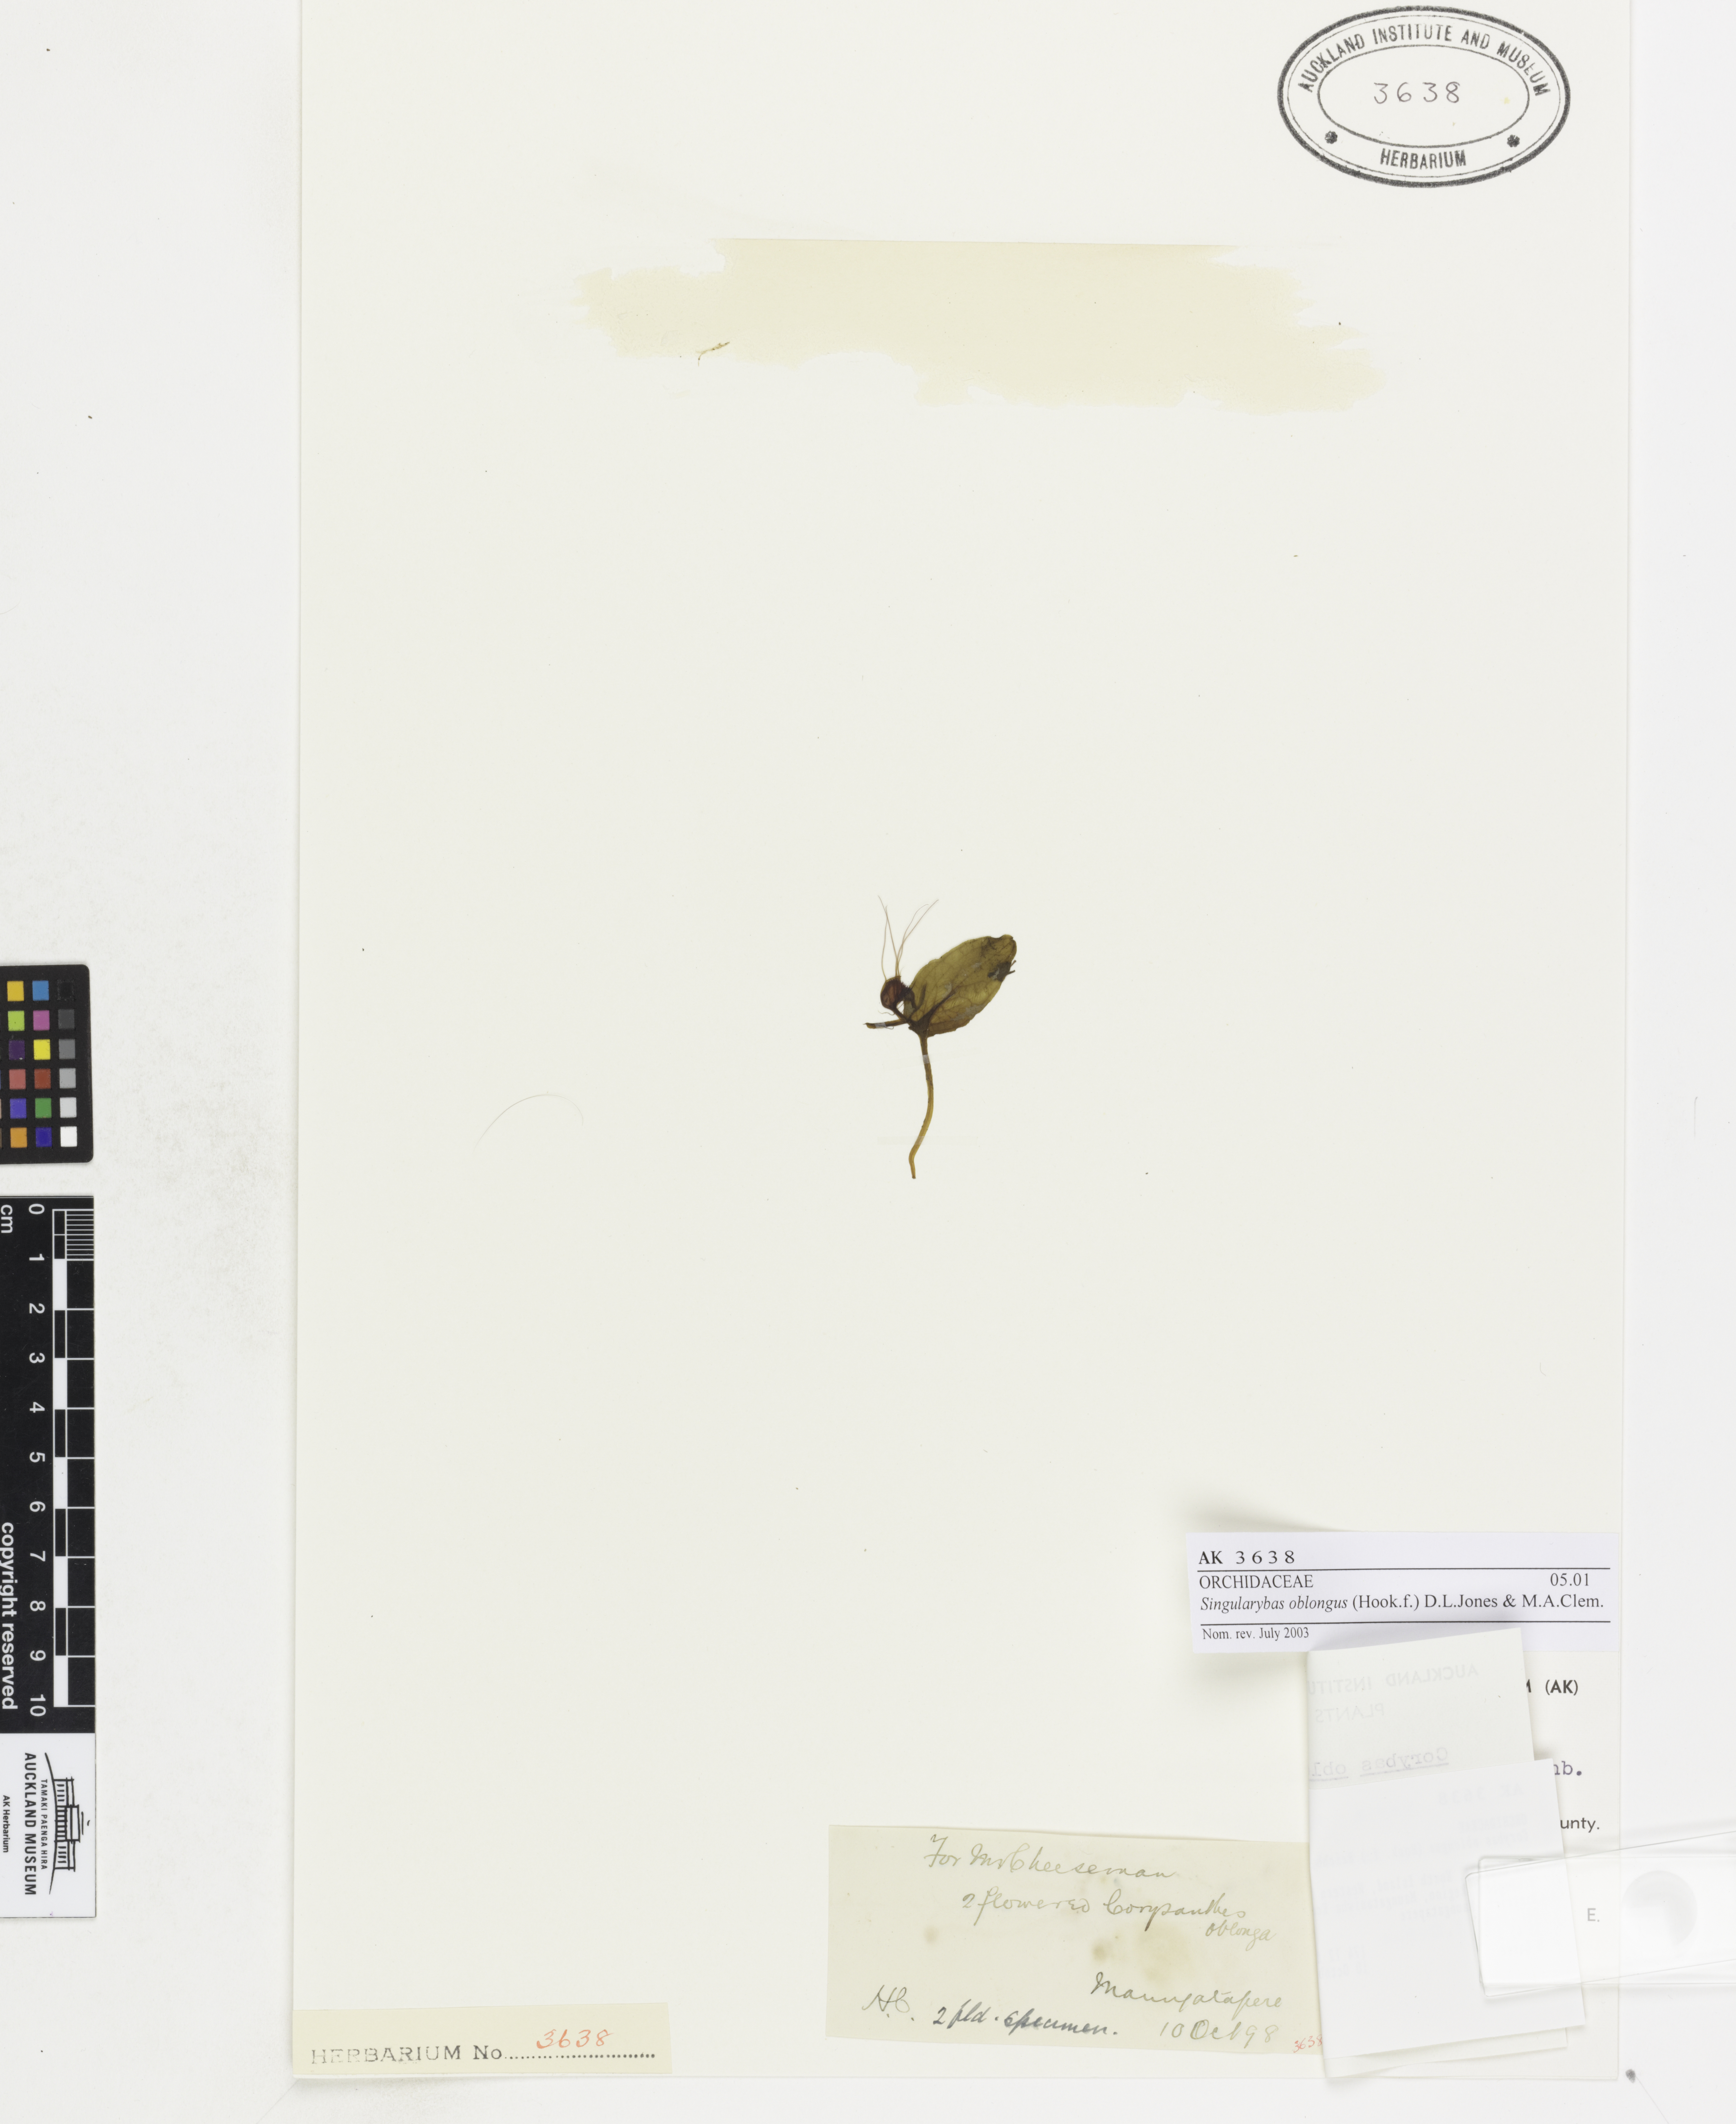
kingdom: Plantae
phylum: Tracheophyta
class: Liliopsida
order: Asparagales
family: Orchidaceae
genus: Corybas
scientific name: Corybas oblongus
